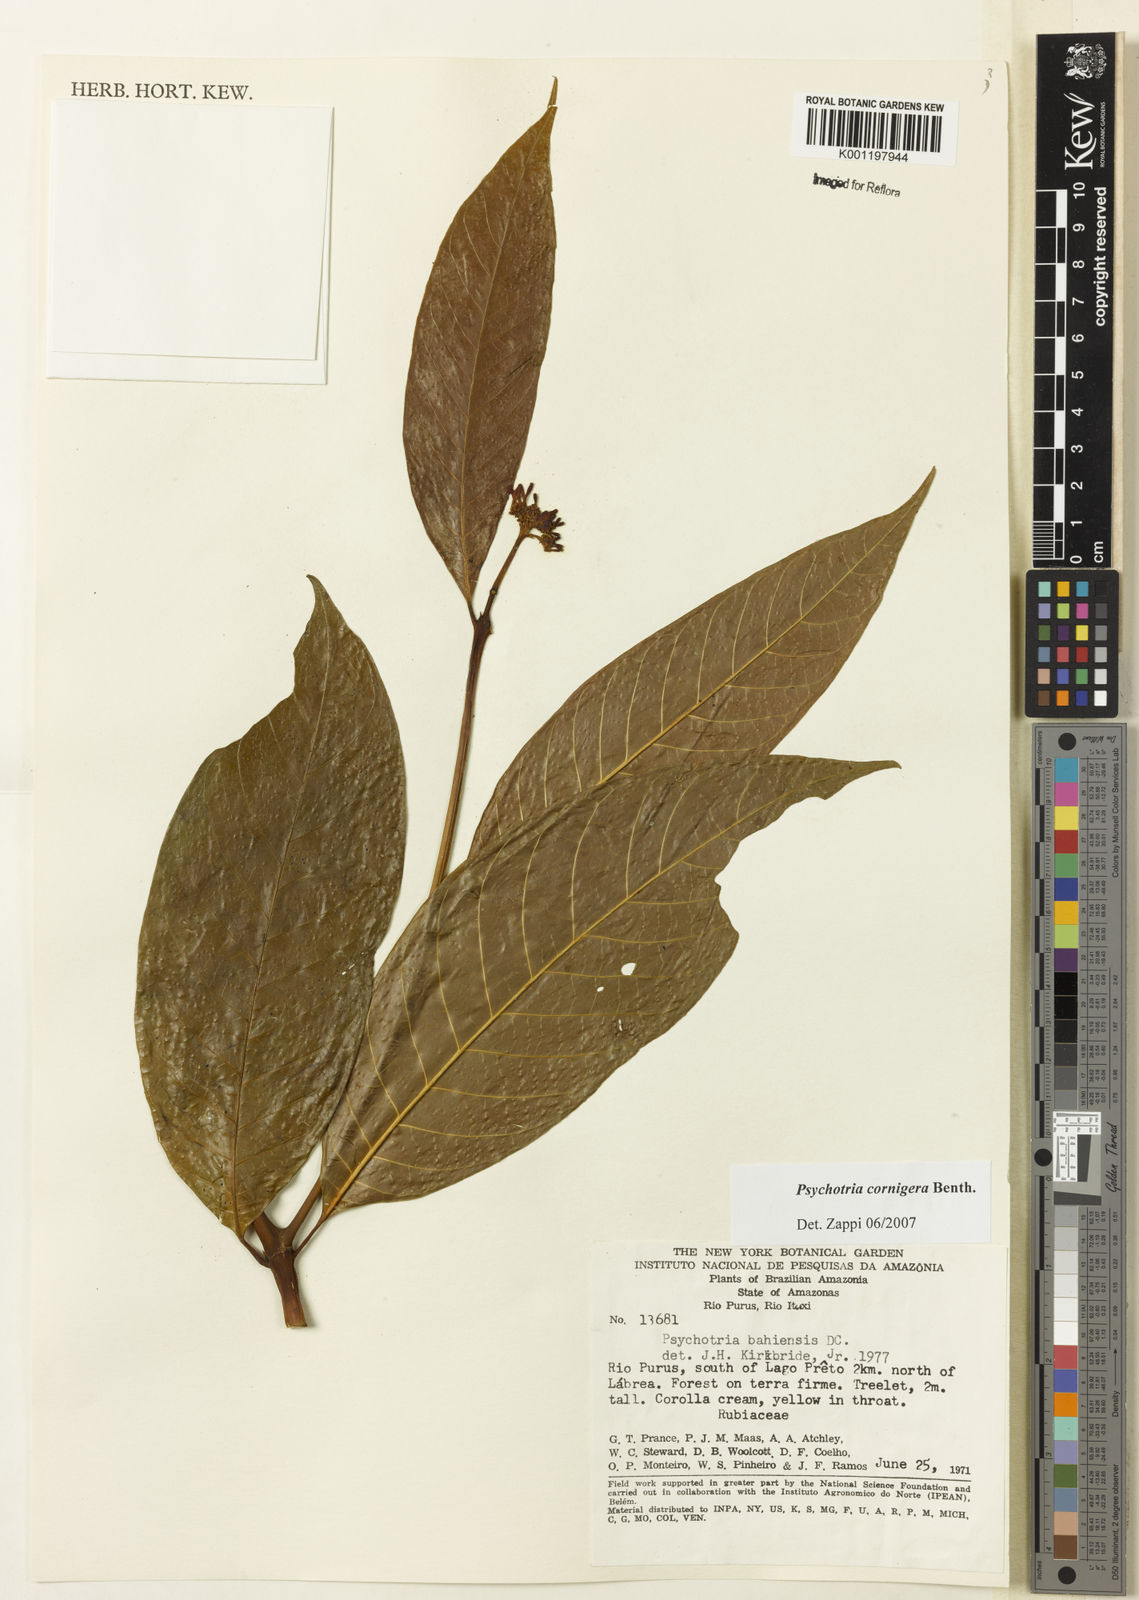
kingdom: Plantae
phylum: Tracheophyta
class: Magnoliopsida
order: Gentianales
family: Rubiaceae
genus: Psychotria
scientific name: Psychotria bahiensis
